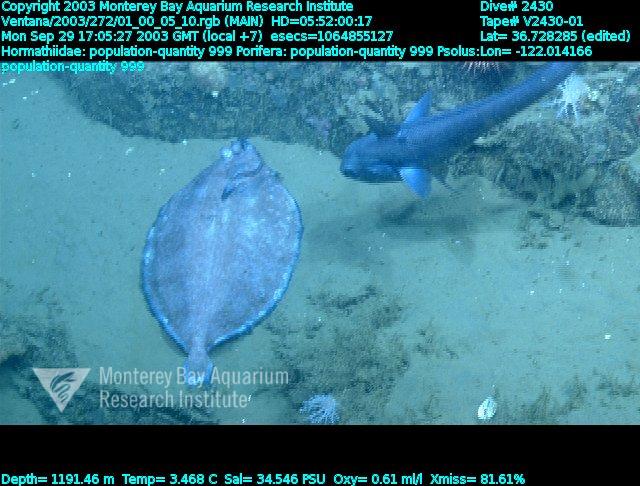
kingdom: Animalia
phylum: Porifera
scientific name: Porifera
